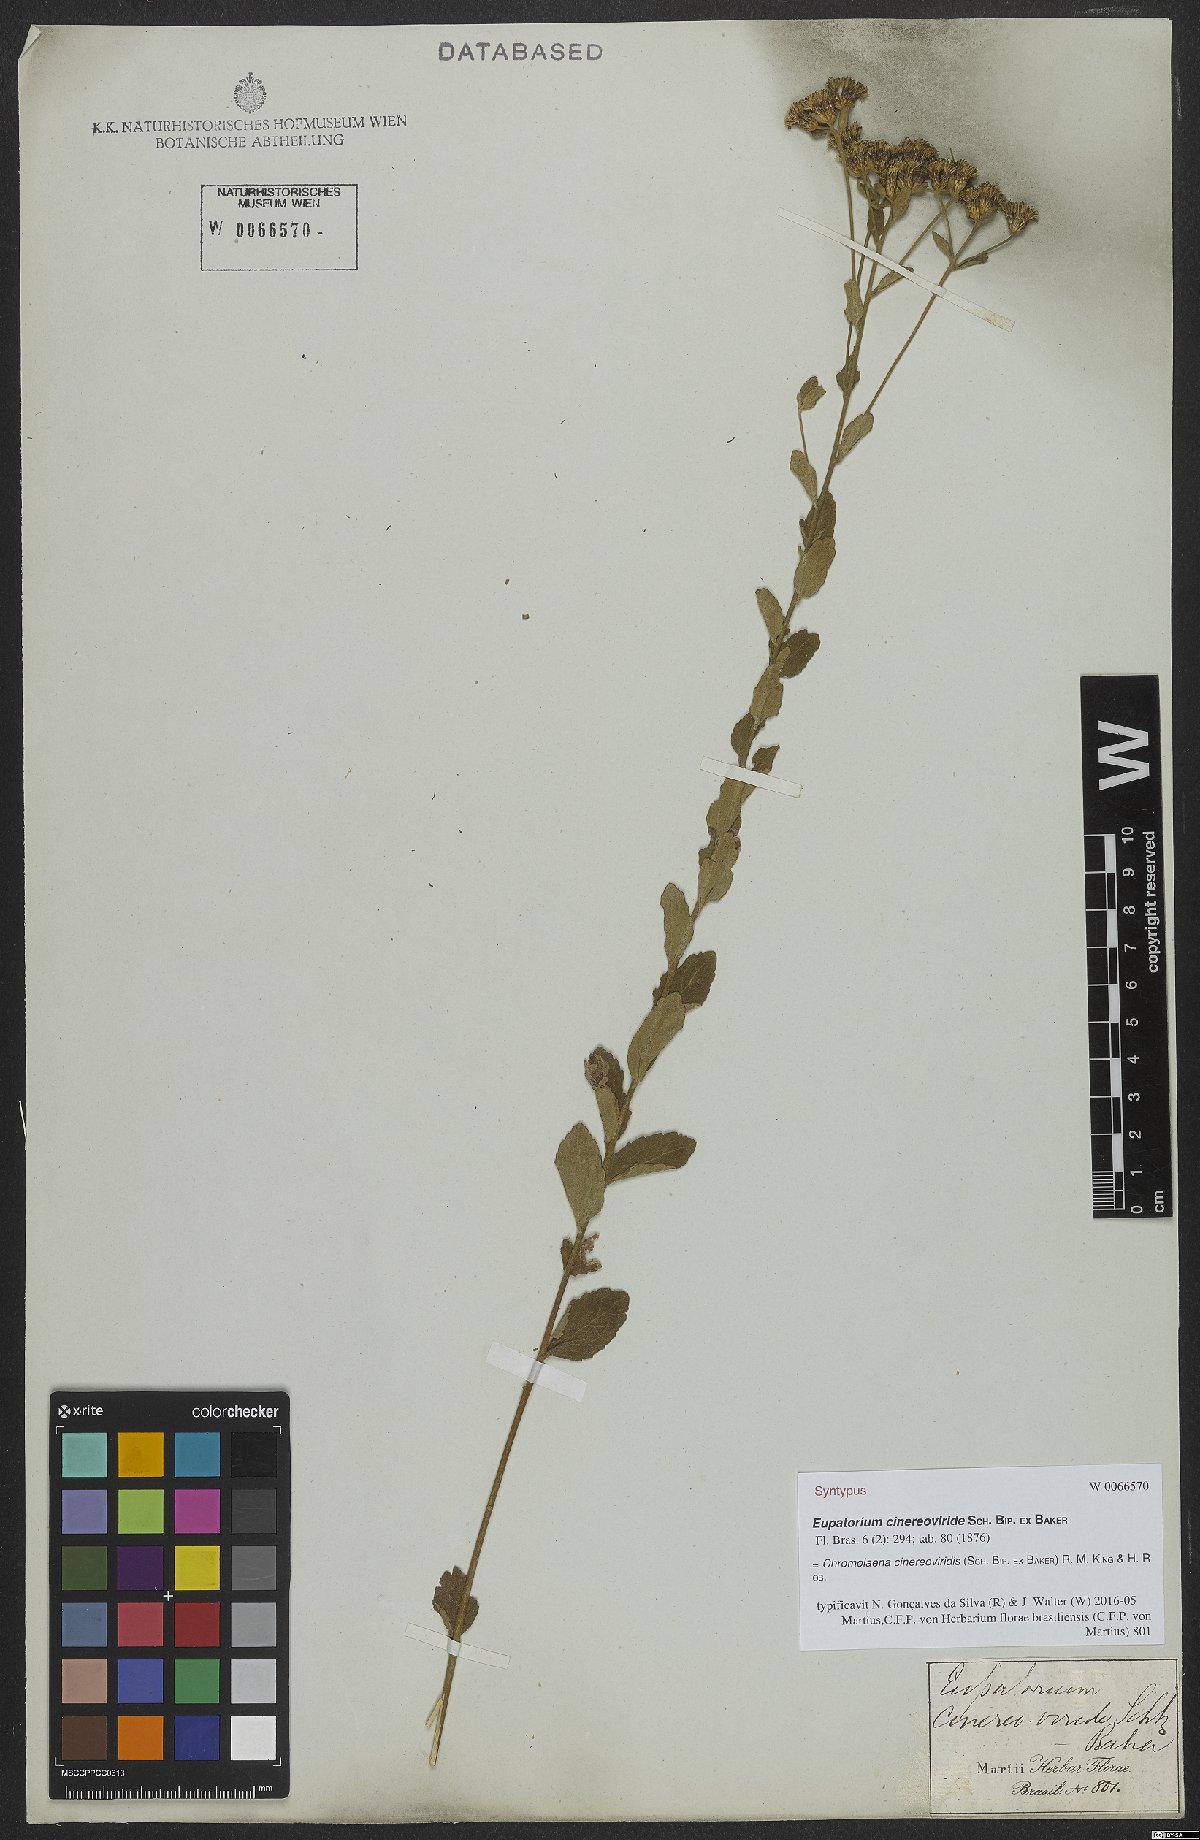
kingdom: Plantae
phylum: Tracheophyta
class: Magnoliopsida
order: Asterales
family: Asteraceae
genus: Chromolaena
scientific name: Chromolaena cinereoviridis
